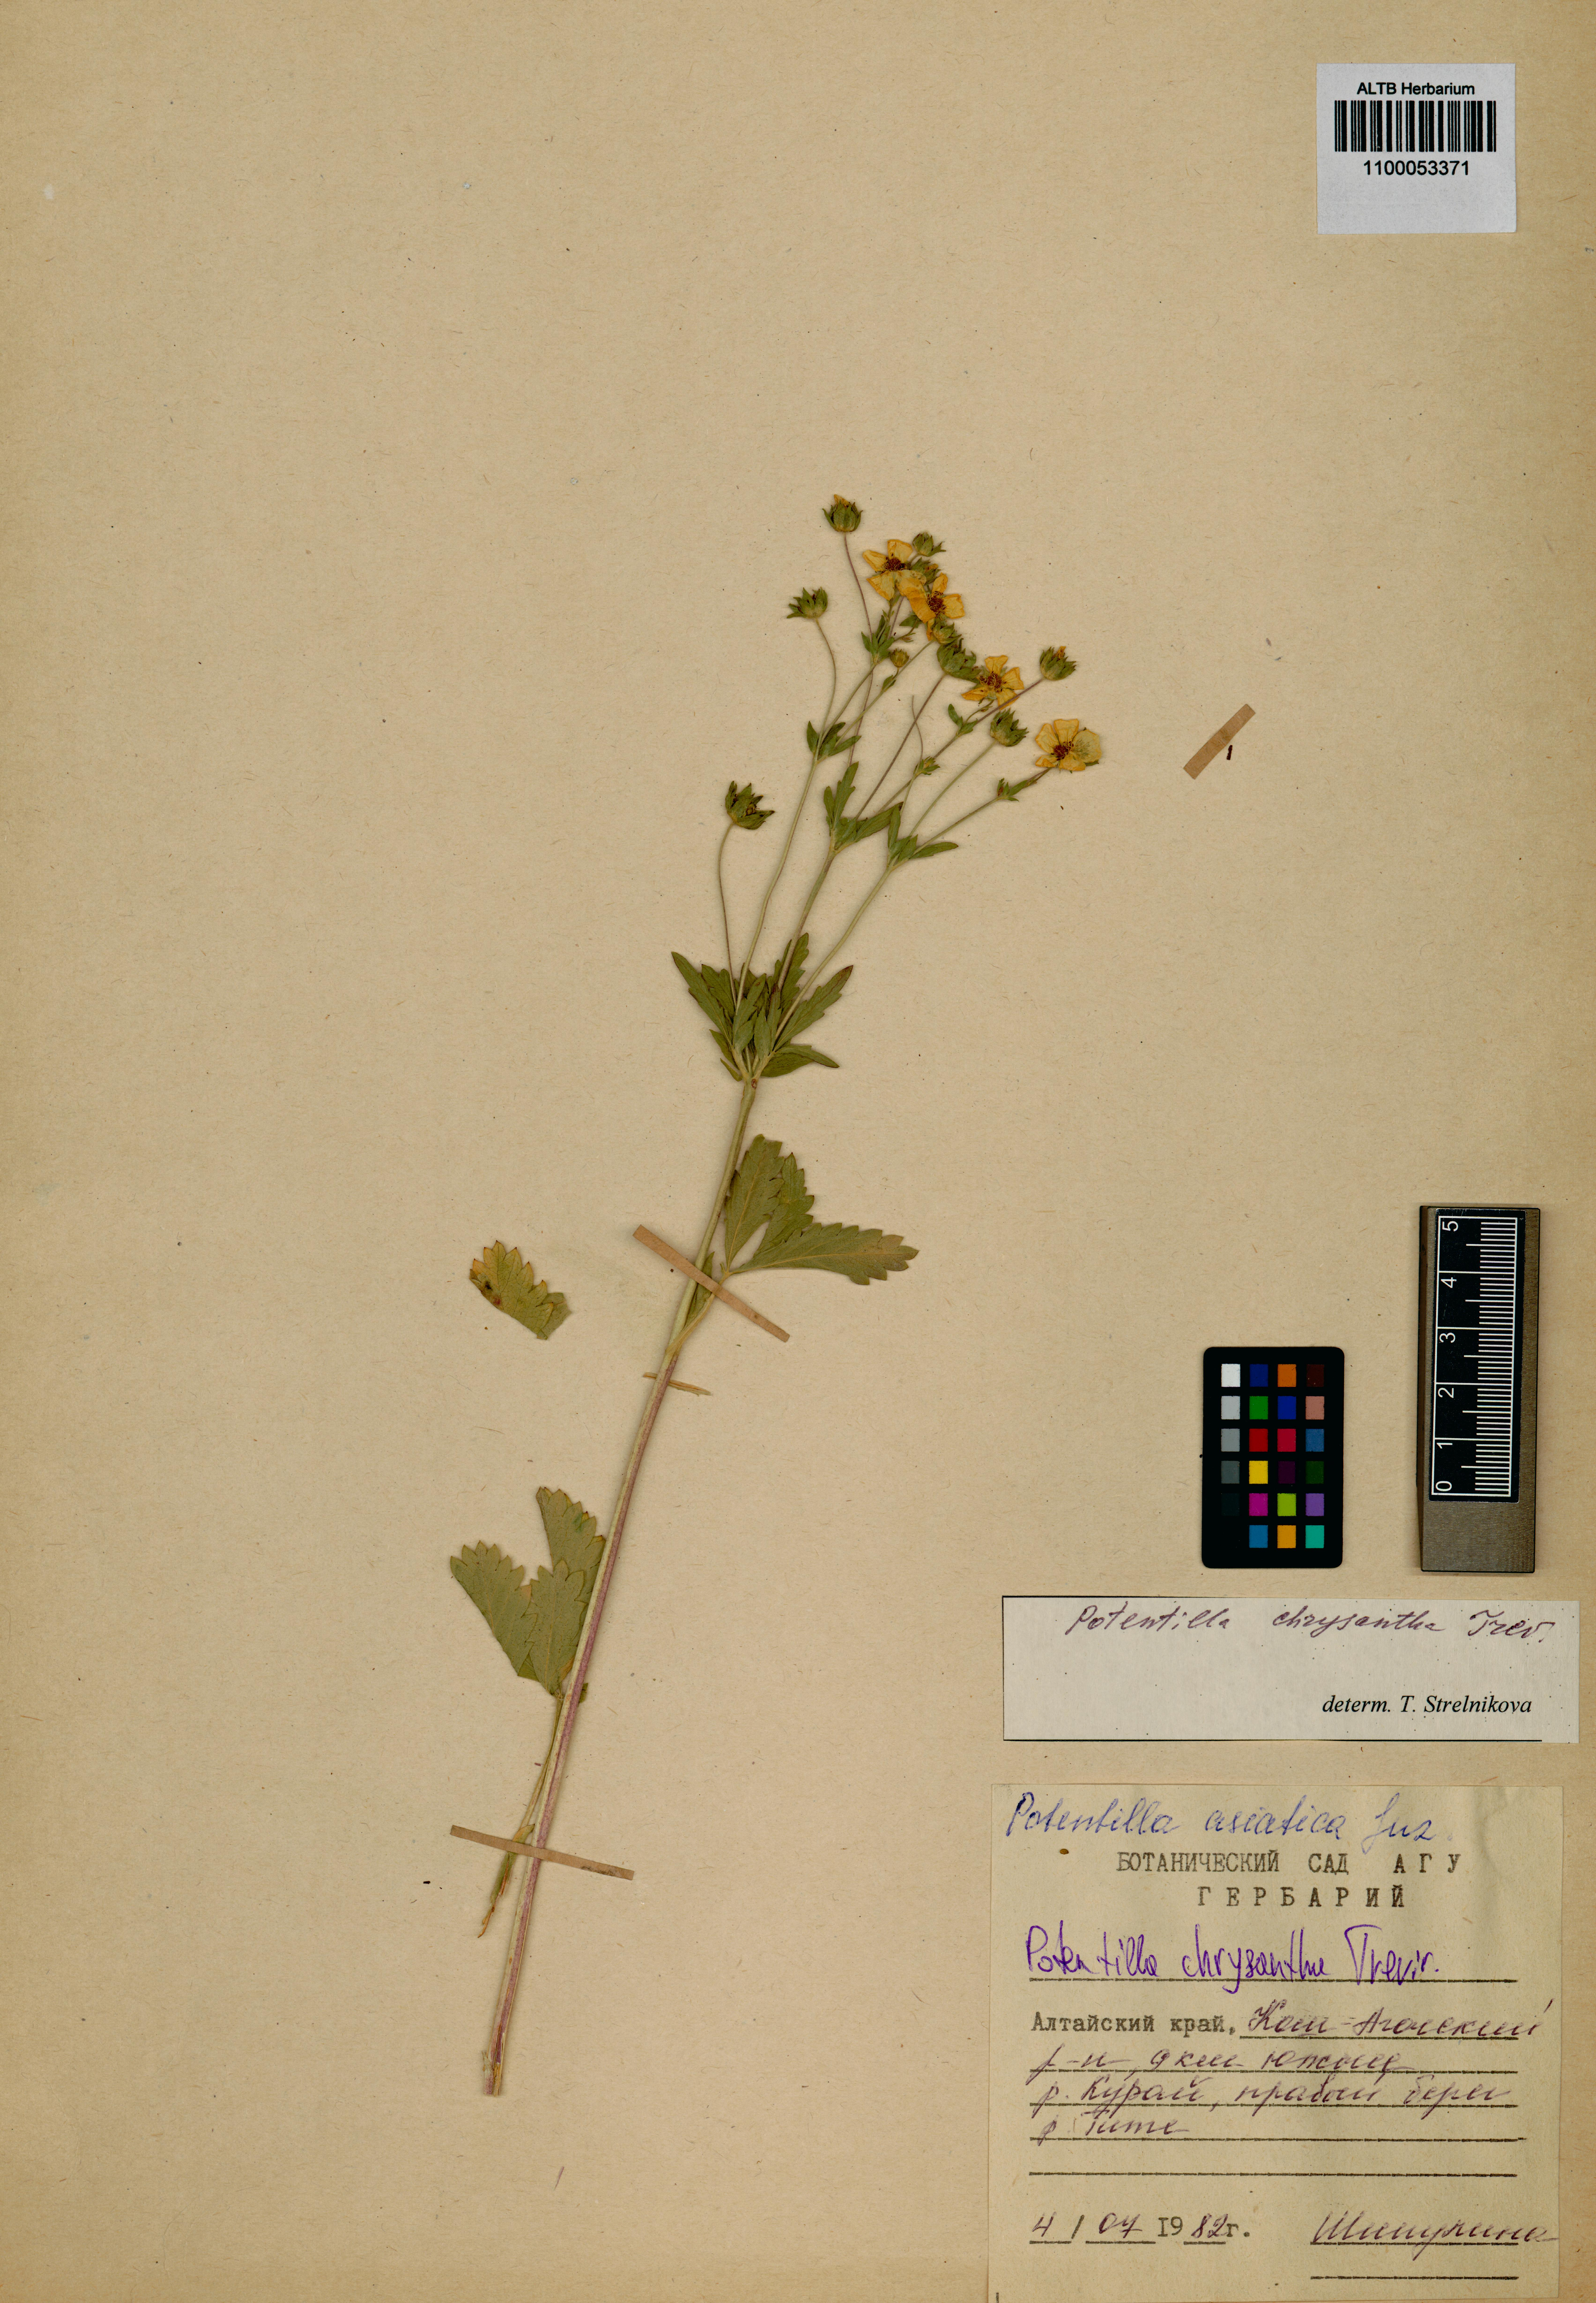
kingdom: Plantae
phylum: Tracheophyta
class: Magnoliopsida
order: Rosales
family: Rosaceae
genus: Potentilla
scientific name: Potentilla chrysantha
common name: Thuringian cinquefoil
